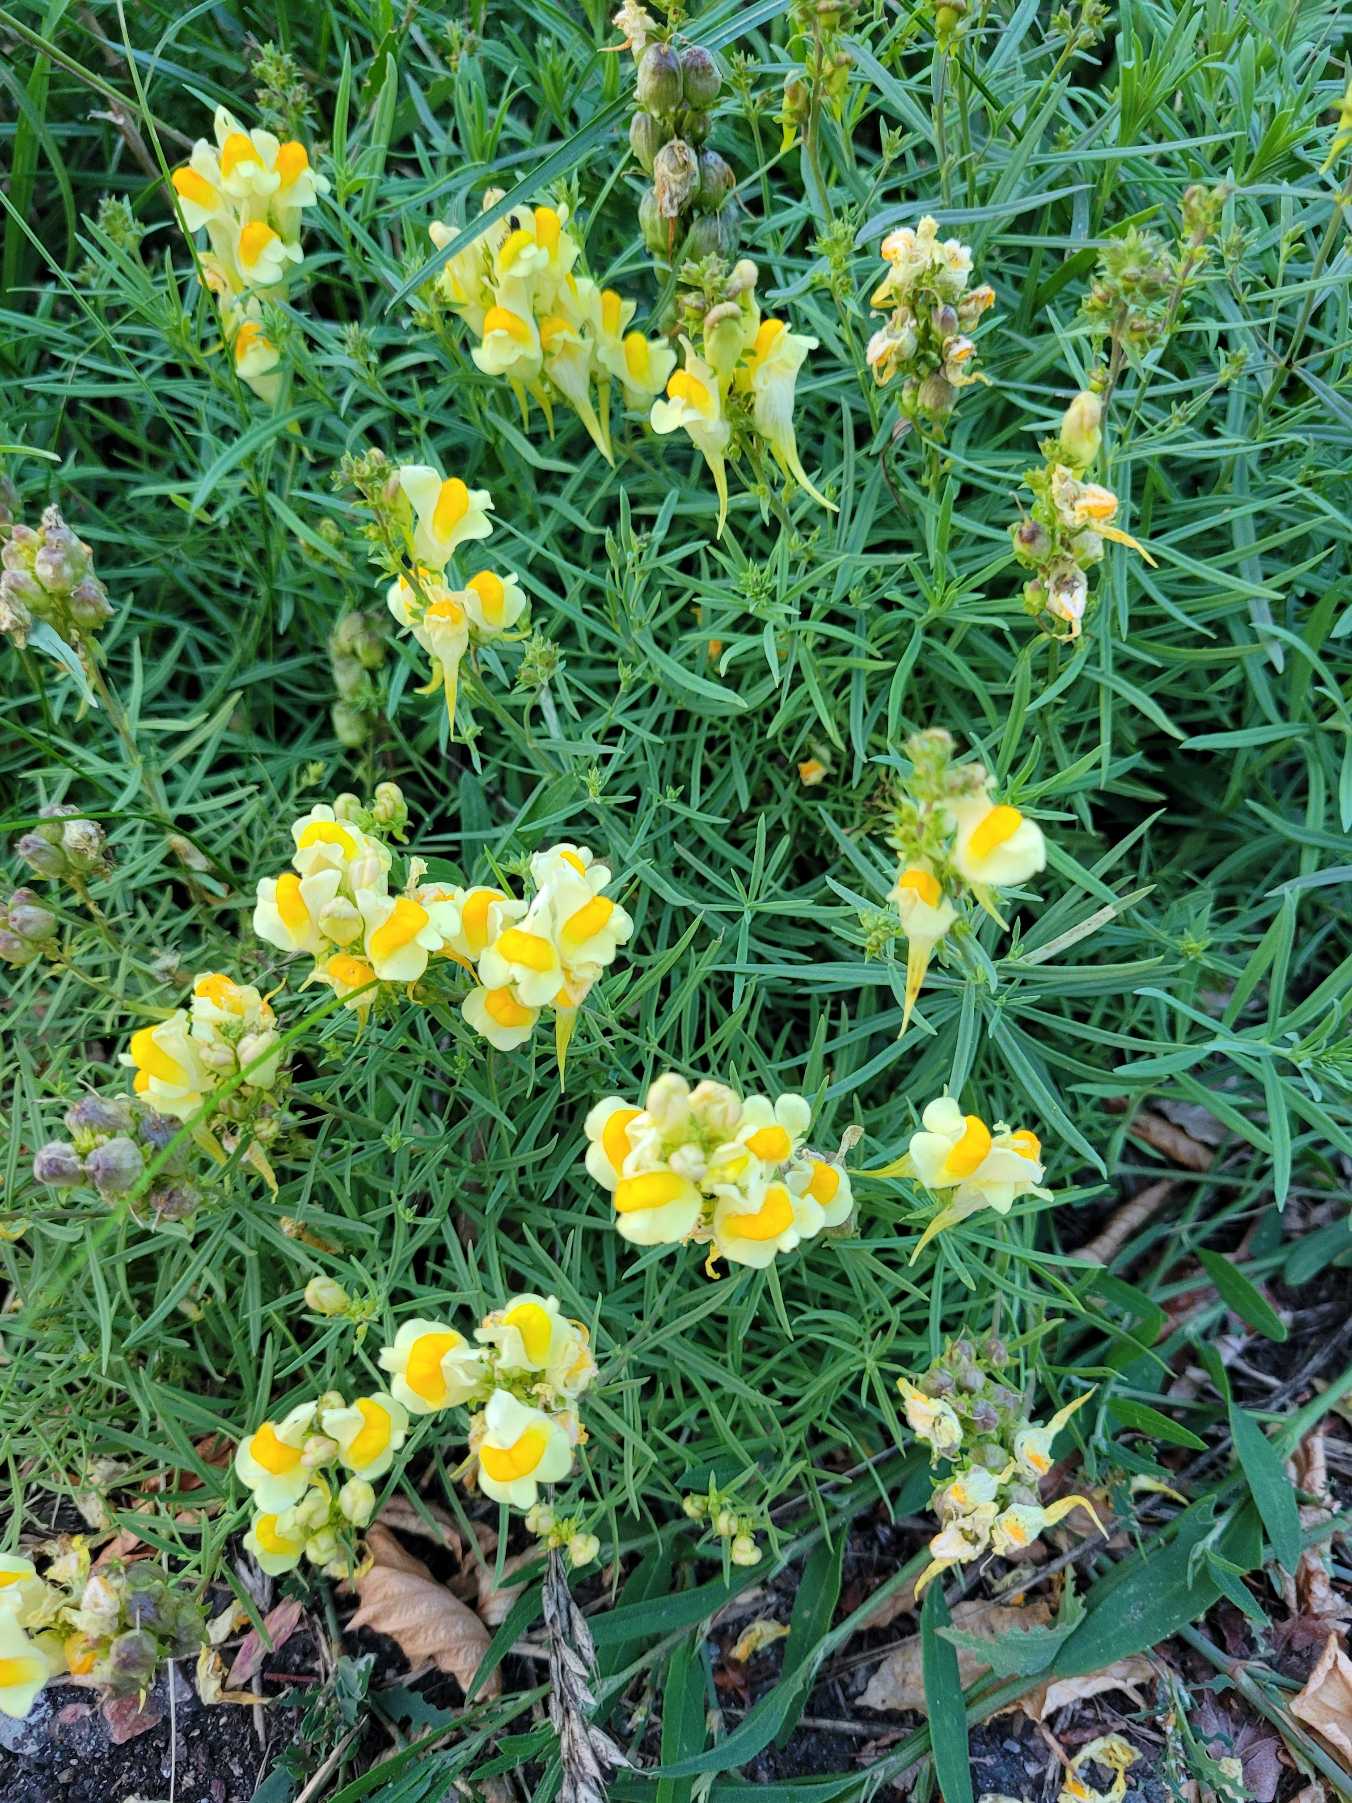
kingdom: Plantae
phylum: Tracheophyta
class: Magnoliopsida
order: Lamiales
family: Plantaginaceae
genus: Linaria
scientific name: Linaria vulgaris
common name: Almindelig torskemund
